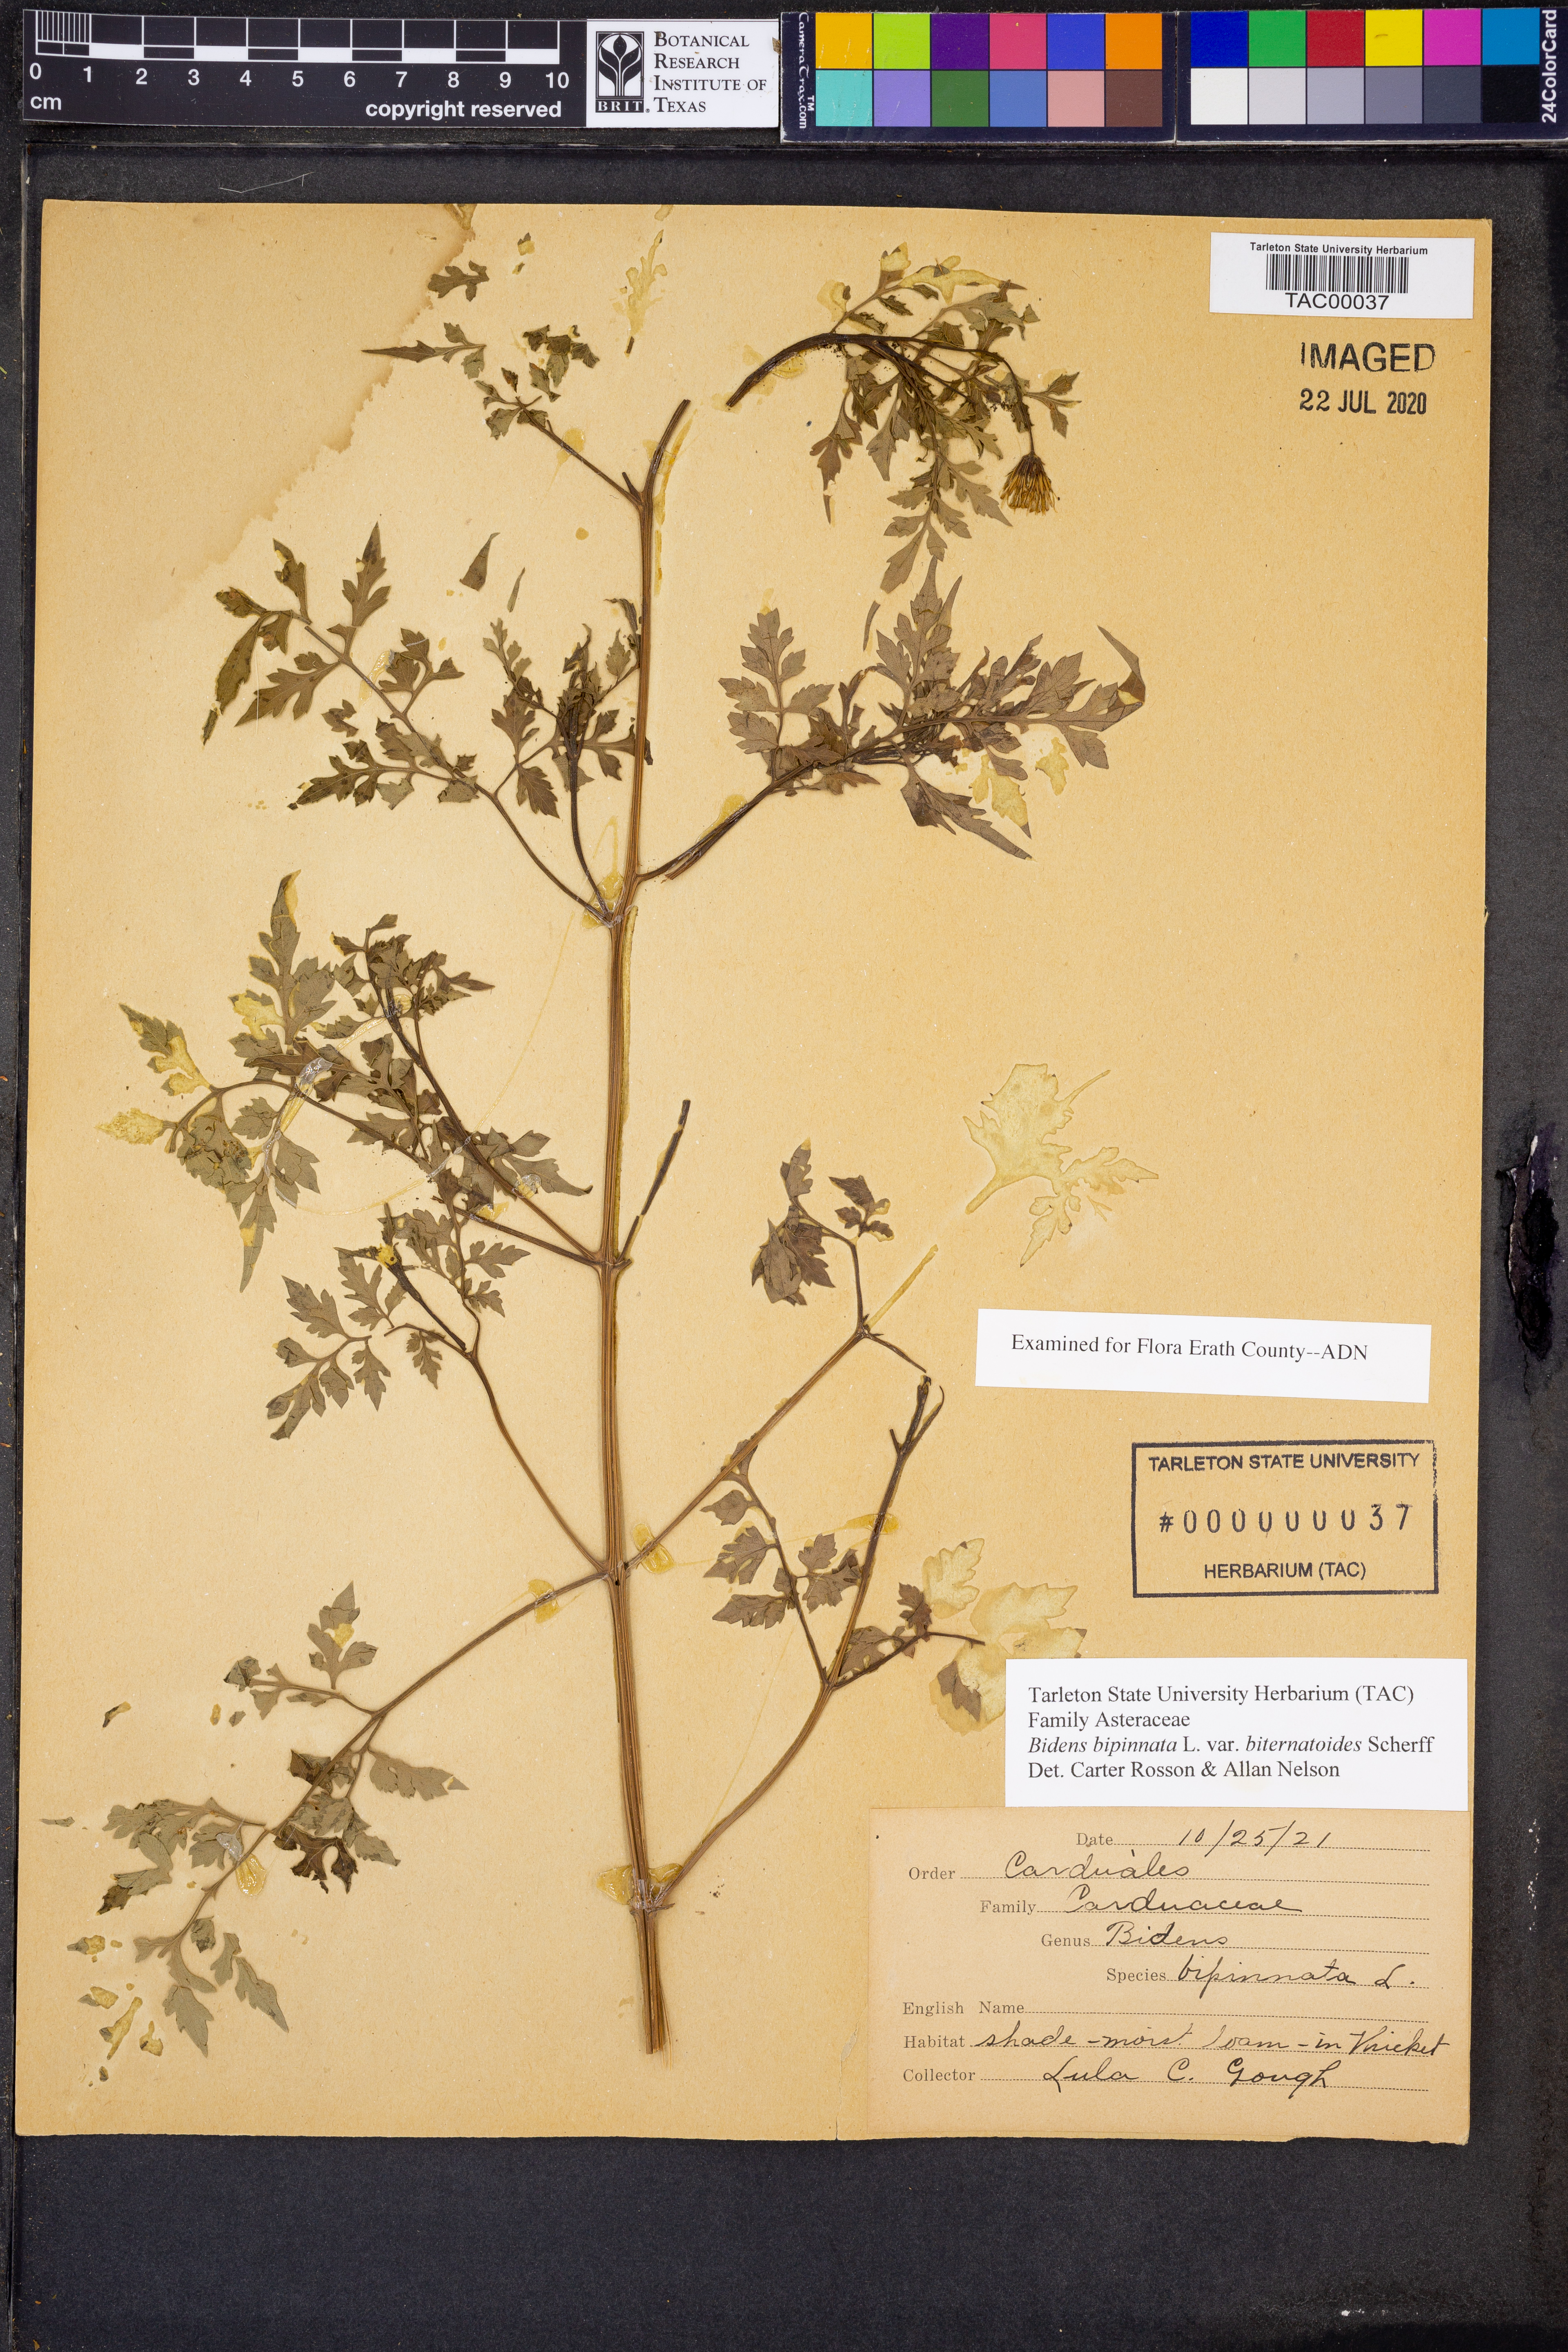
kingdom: Plantae
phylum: Tracheophyta
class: Magnoliopsida
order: Asterales
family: Asteraceae
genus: Bidens
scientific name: Bidens bipinnata
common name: Spanish-needles
